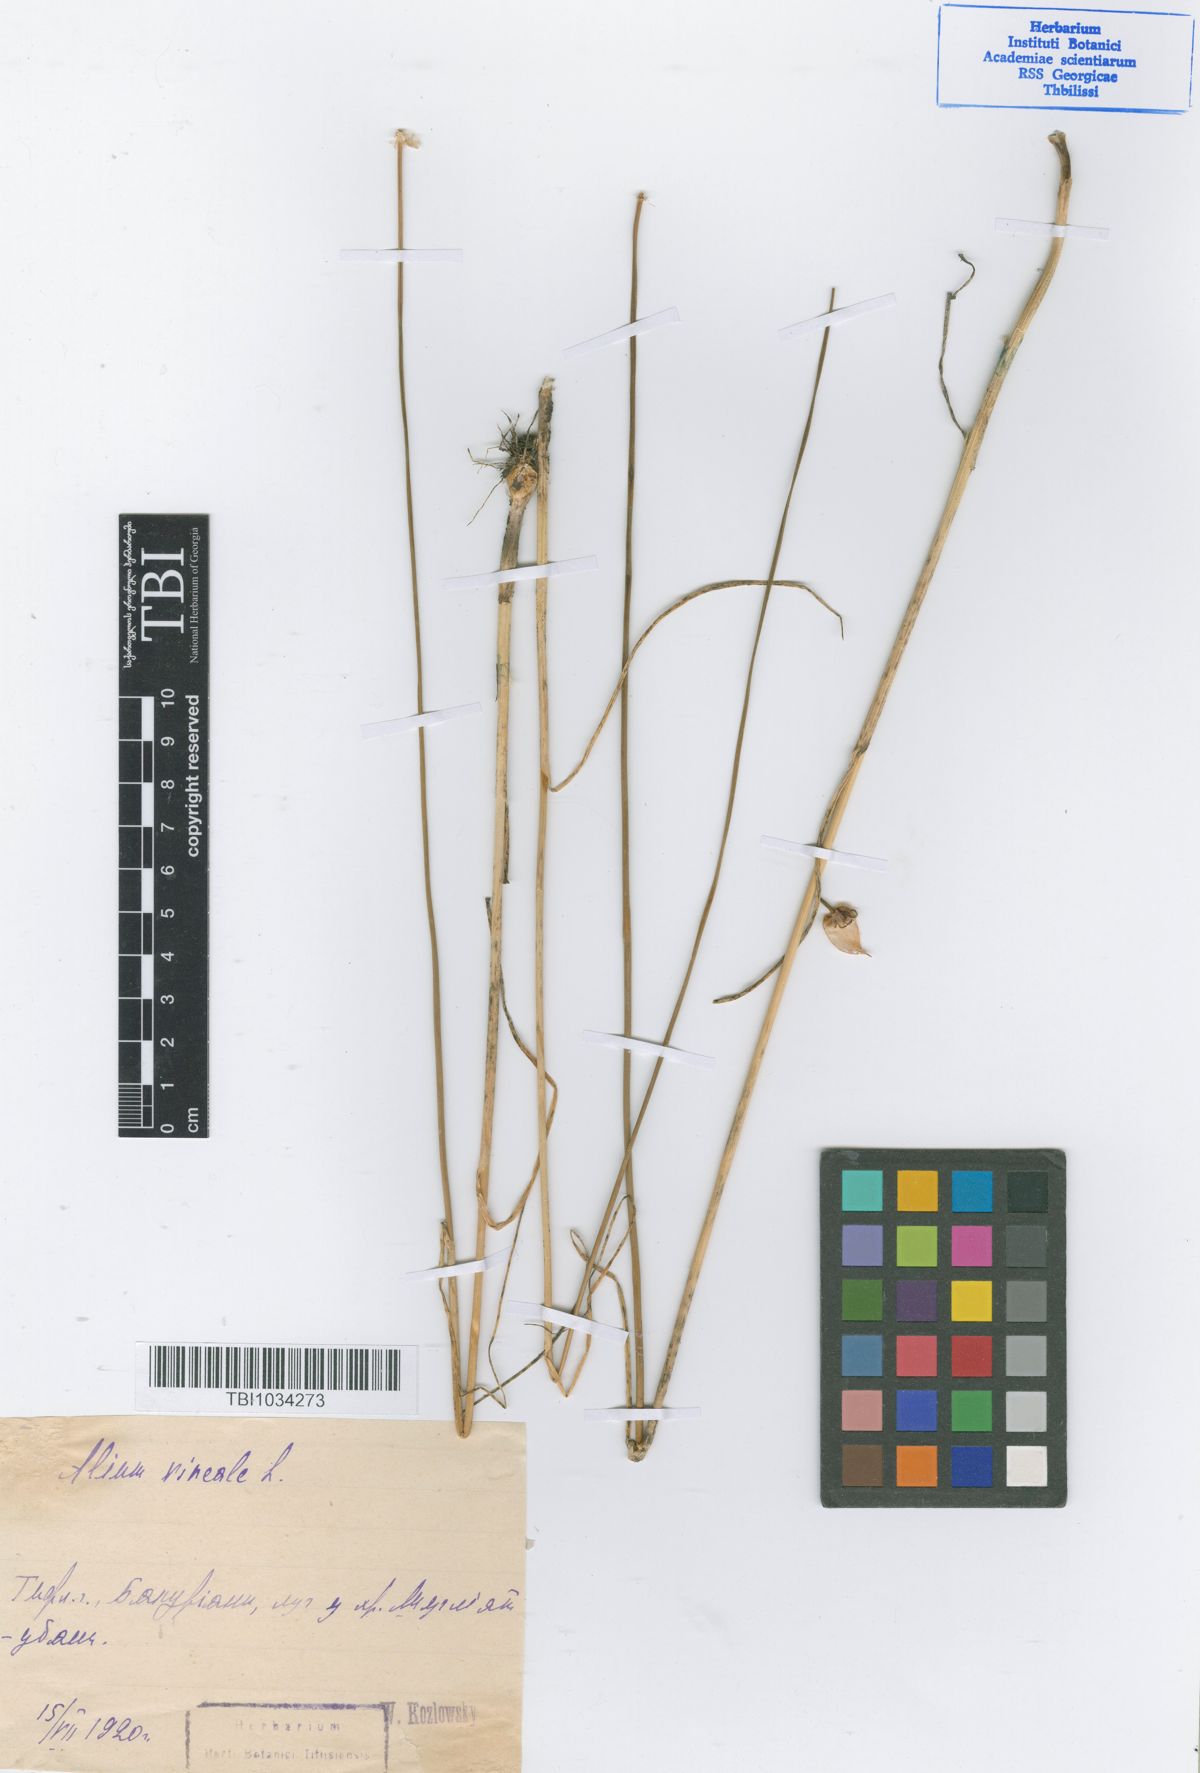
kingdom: Plantae
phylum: Tracheophyta
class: Liliopsida
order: Asparagales
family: Amaryllidaceae
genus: Allium
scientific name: Allium vineale
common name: Crow garlic
